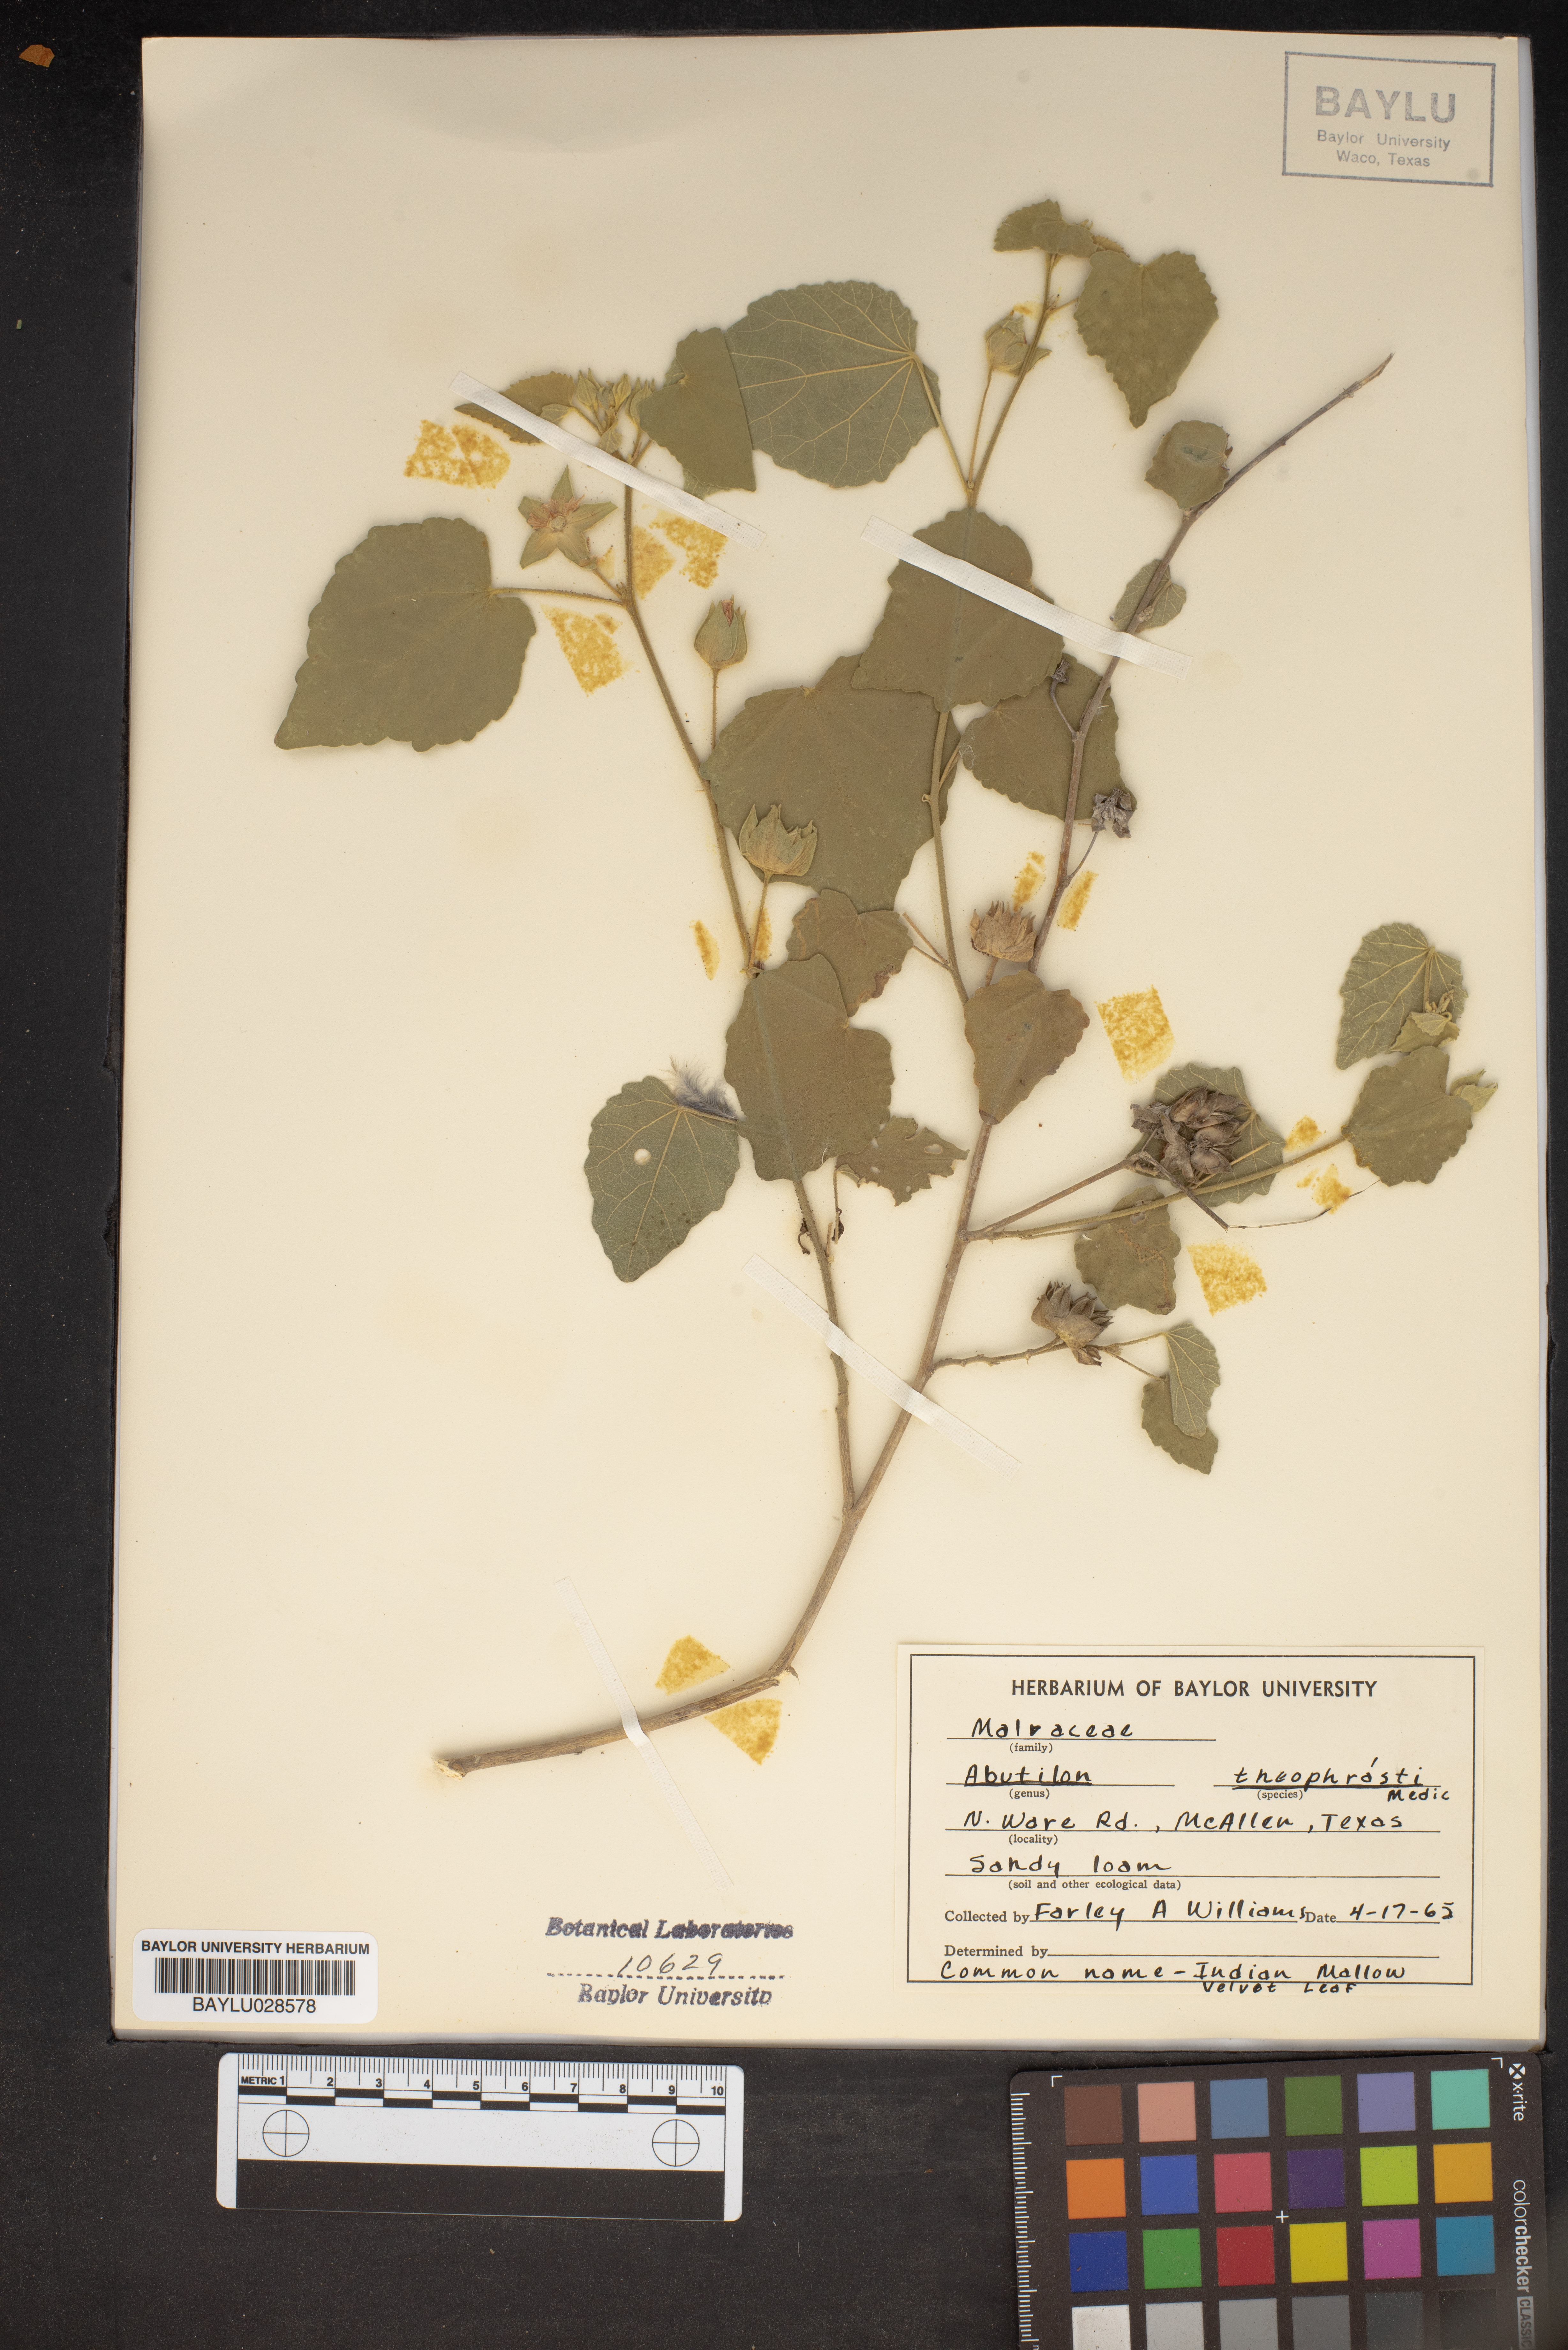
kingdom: Plantae
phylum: Tracheophyta
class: Magnoliopsida
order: Malvales
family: Malvaceae
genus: Abutilon
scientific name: Abutilon theophrasti
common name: Velvetleaf
